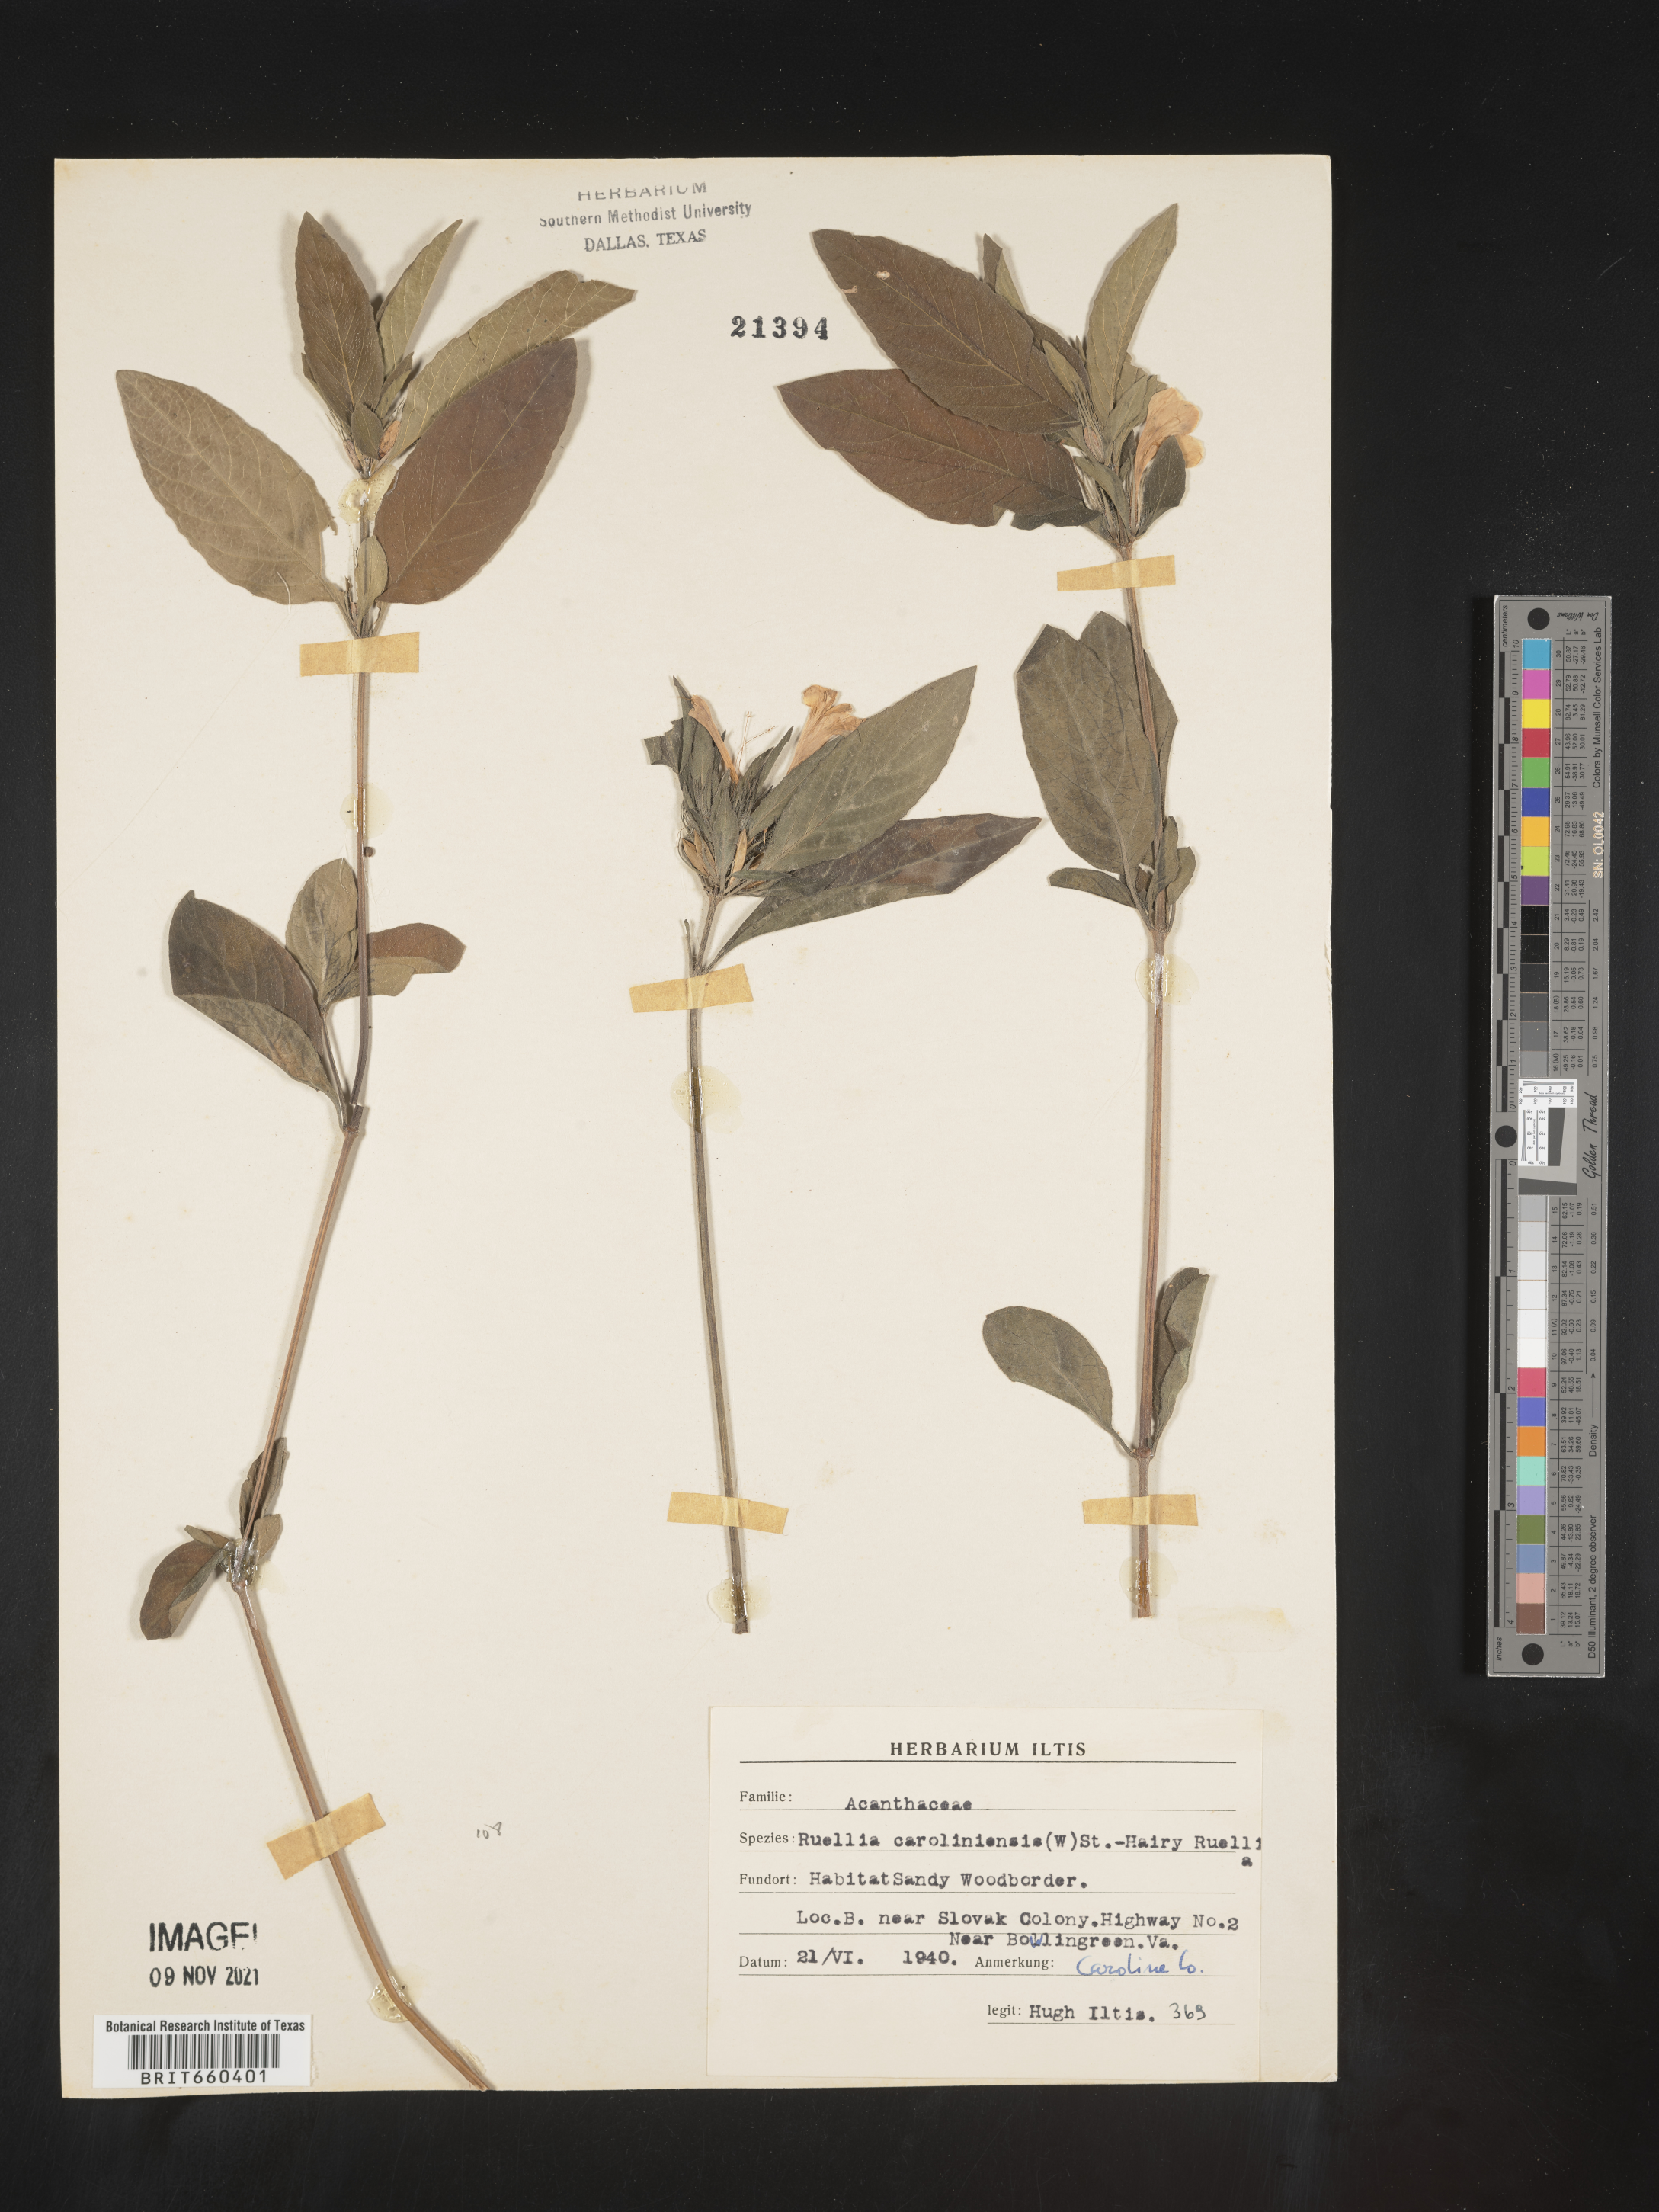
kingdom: Plantae
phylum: Tracheophyta
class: Magnoliopsida
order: Lamiales
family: Acanthaceae
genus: Ruellia
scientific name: Ruellia caroliniensis
